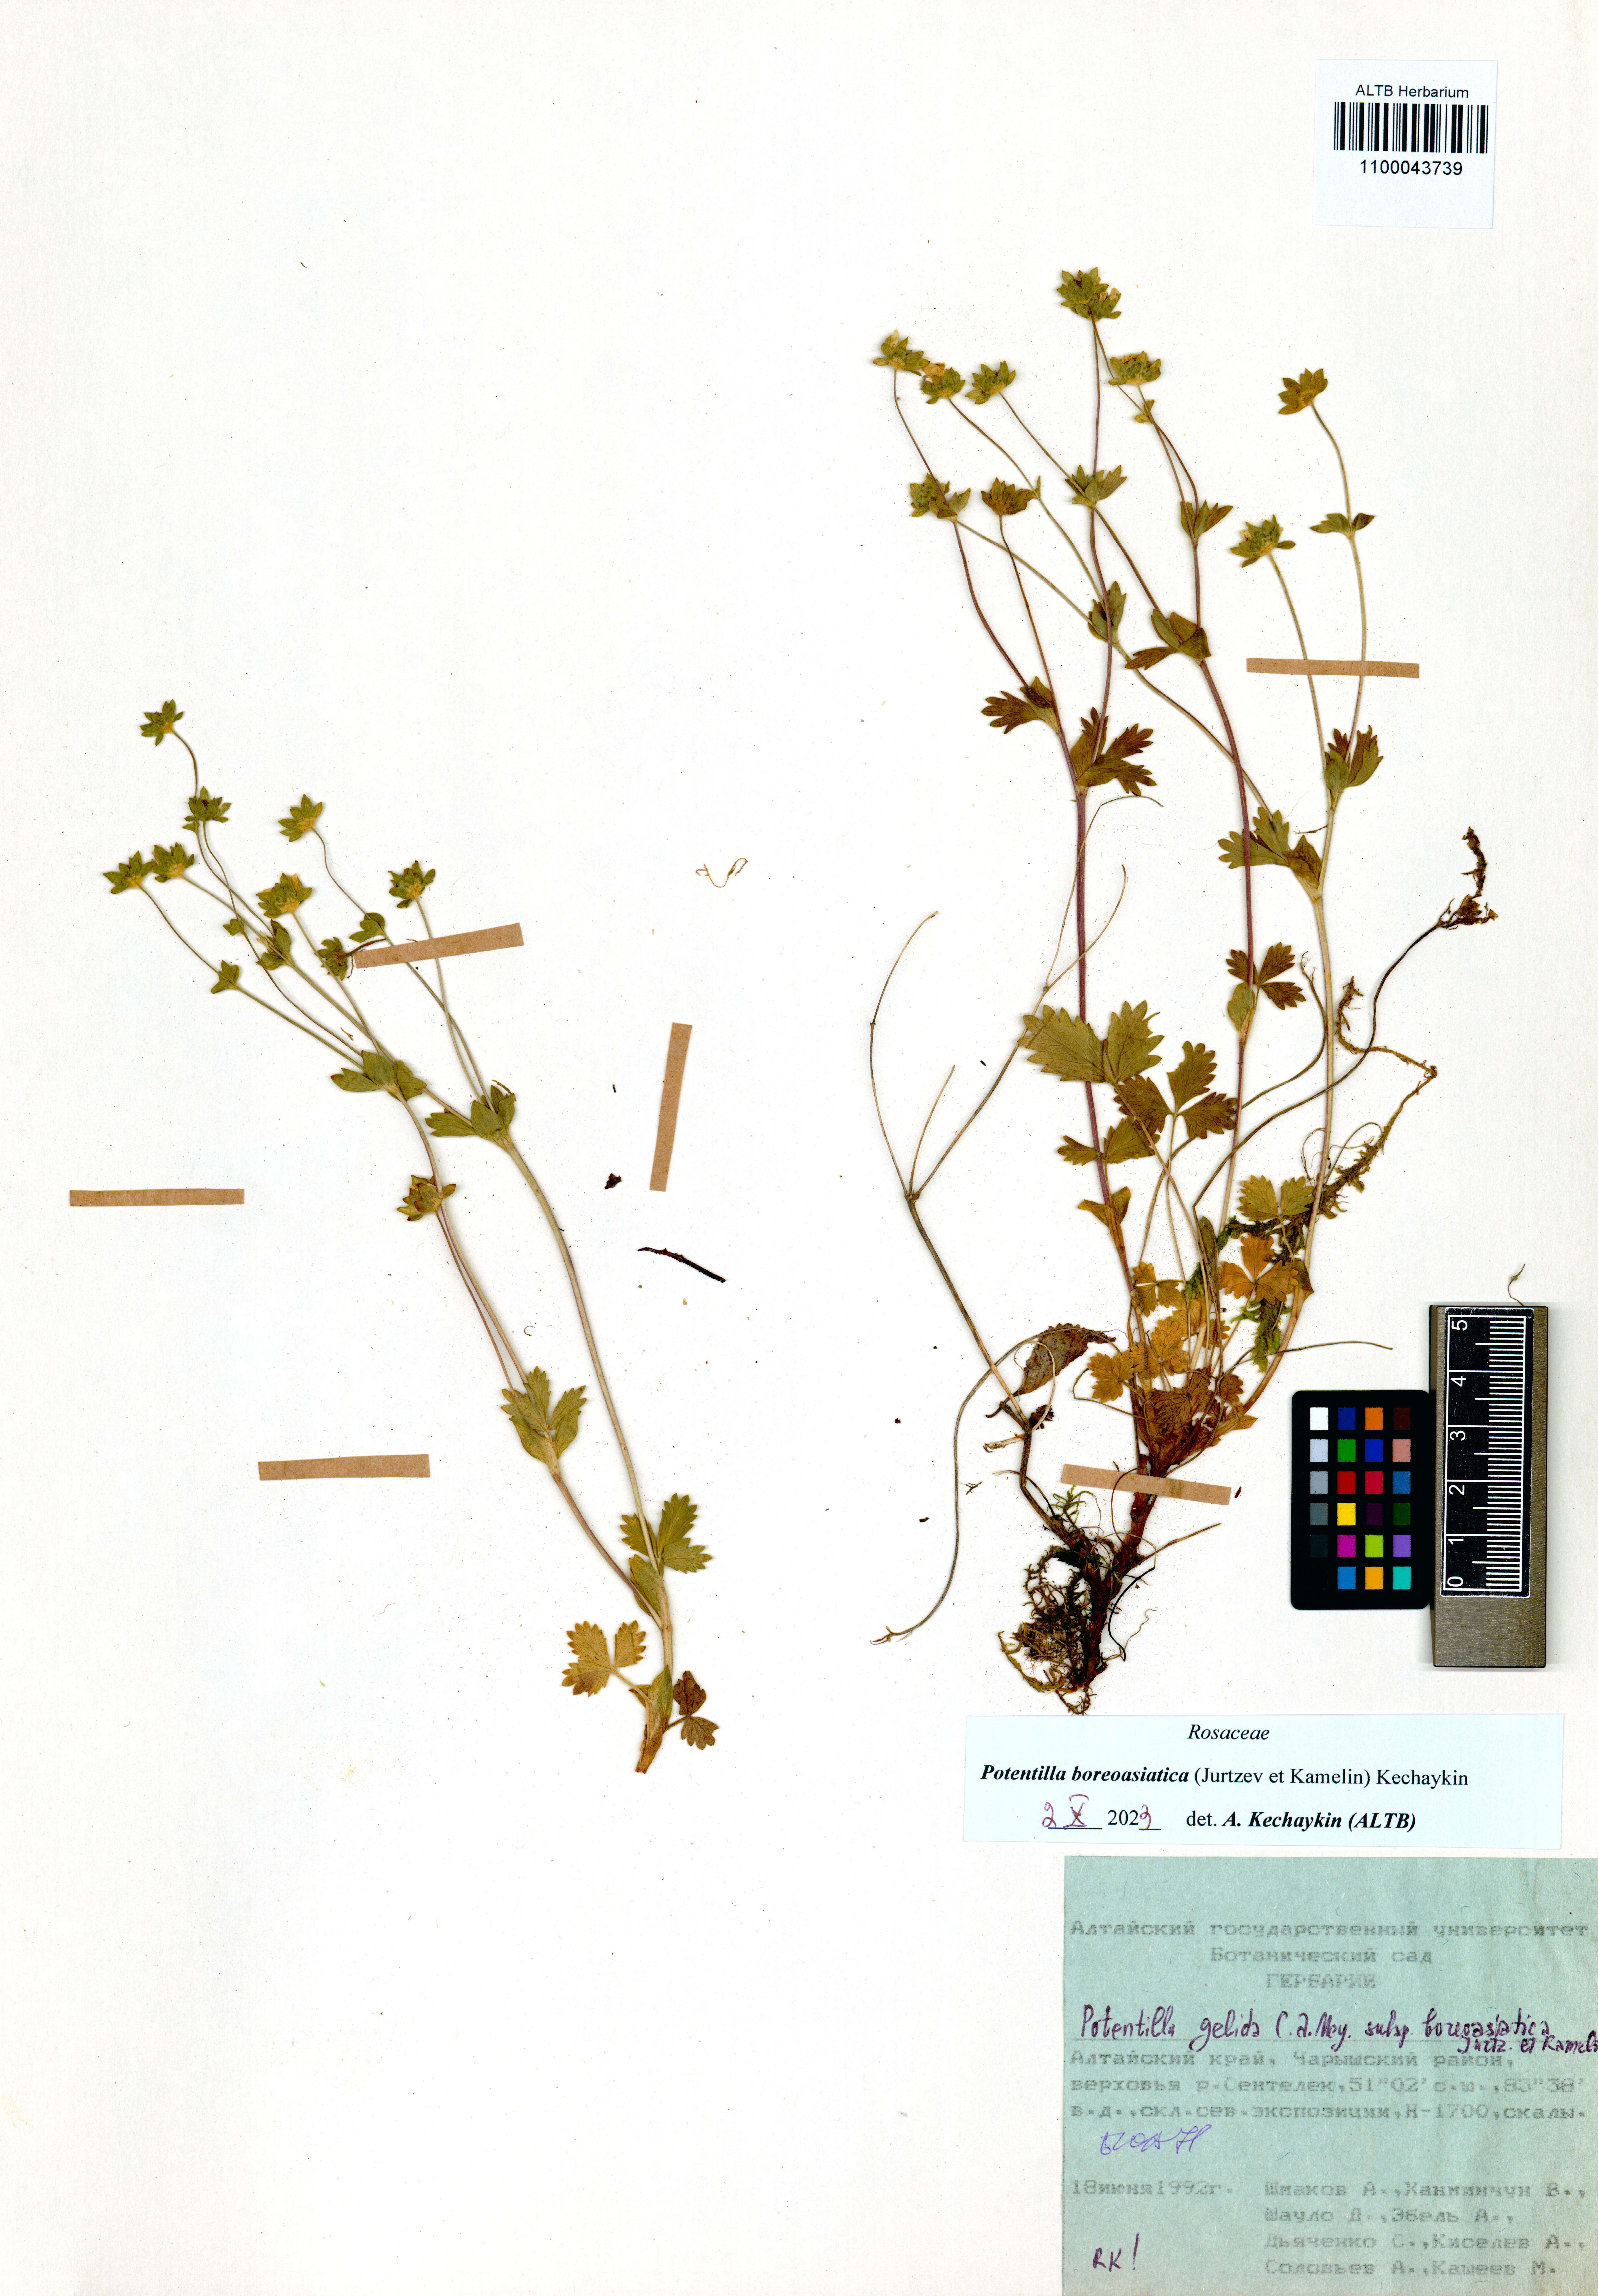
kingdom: Plantae
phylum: Tracheophyta
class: Magnoliopsida
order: Rosales
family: Rosaceae
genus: Potentilla
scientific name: Potentilla
